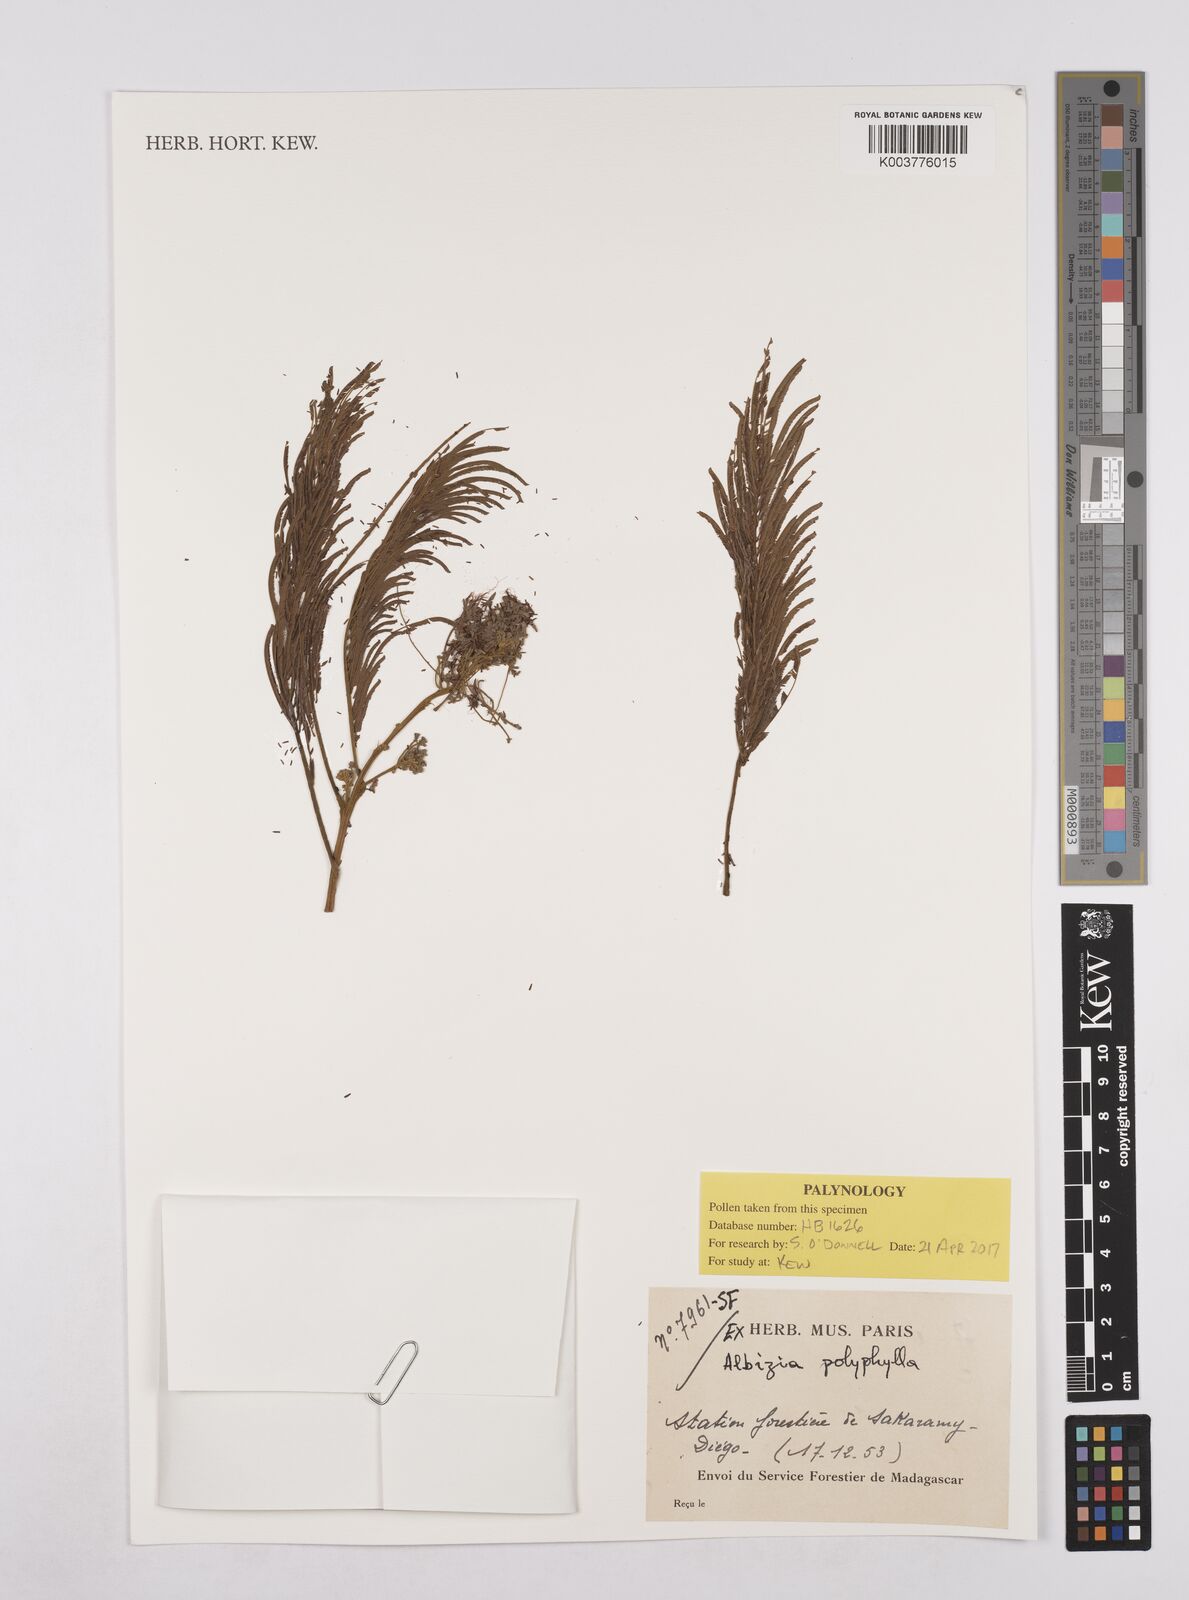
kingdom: Plantae
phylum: Tracheophyta
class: Magnoliopsida
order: Fabales
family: Fabaceae
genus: Albizia
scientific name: Albizia polyphylla
